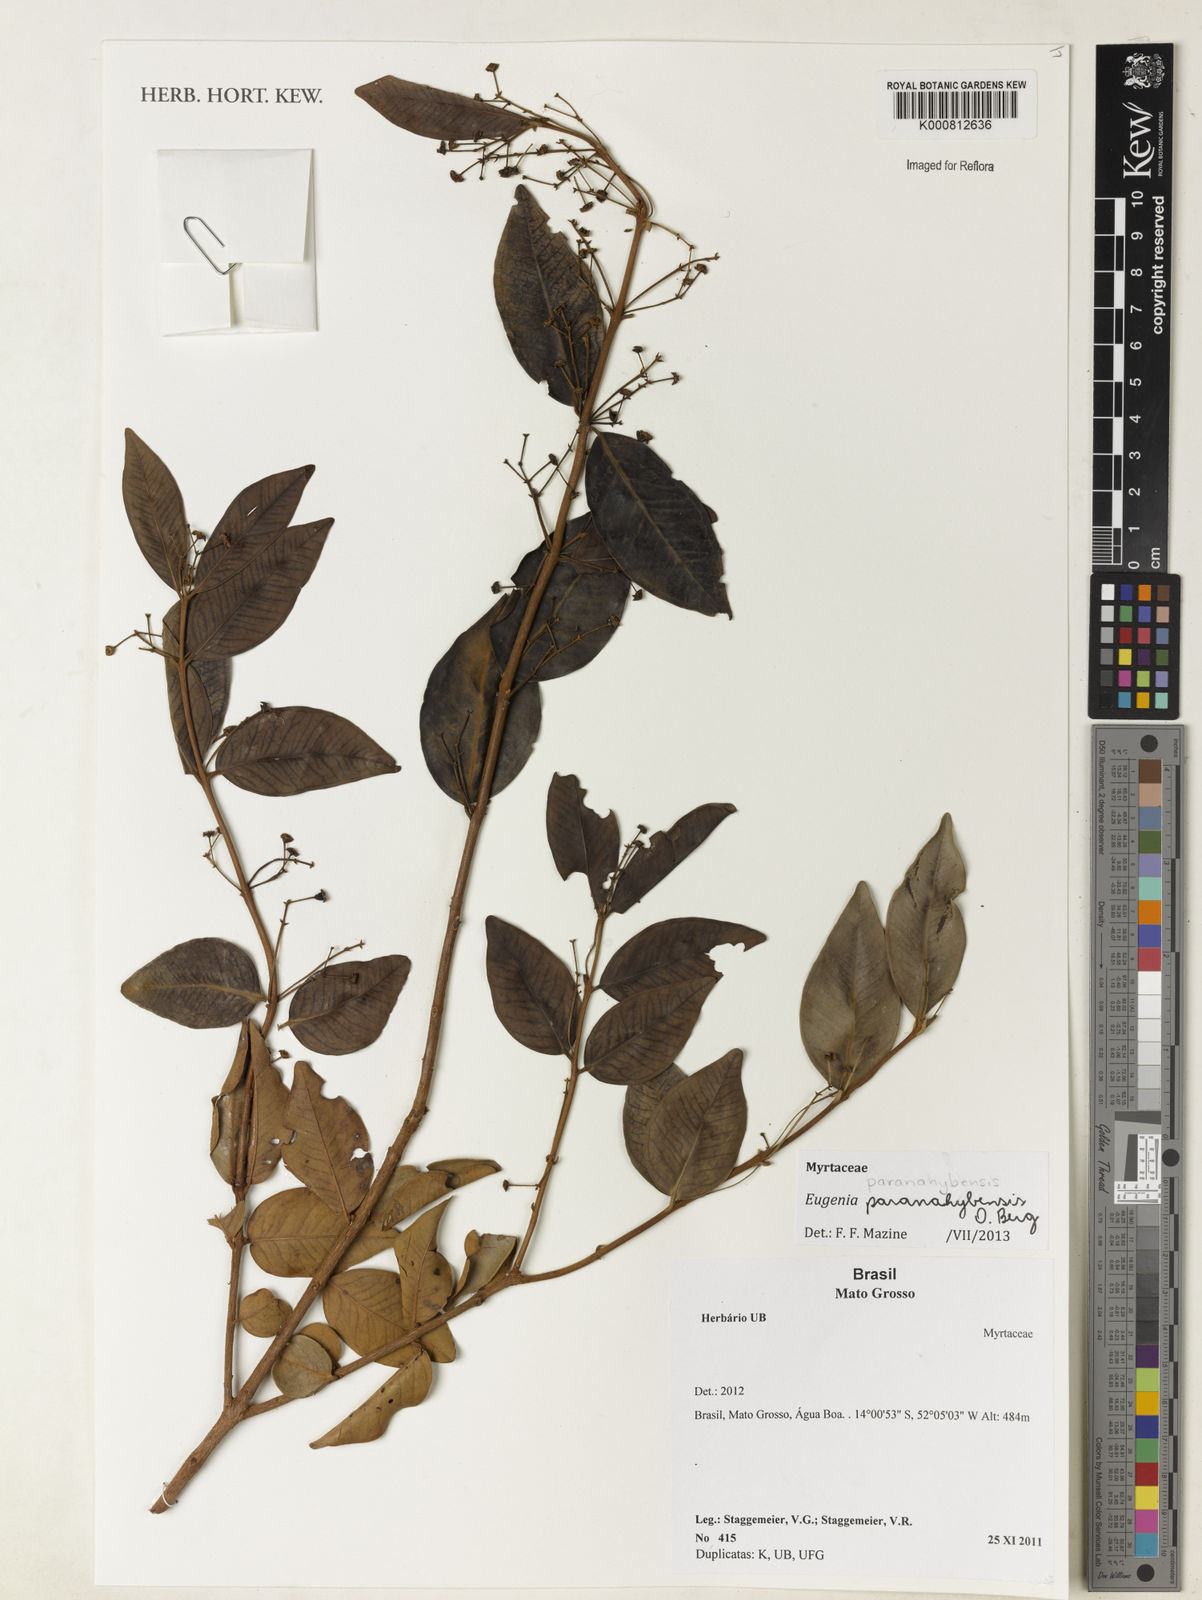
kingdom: Plantae
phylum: Tracheophyta
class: Magnoliopsida
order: Myrtales
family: Myrtaceae
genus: Eugenia
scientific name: Eugenia paranahybensis
